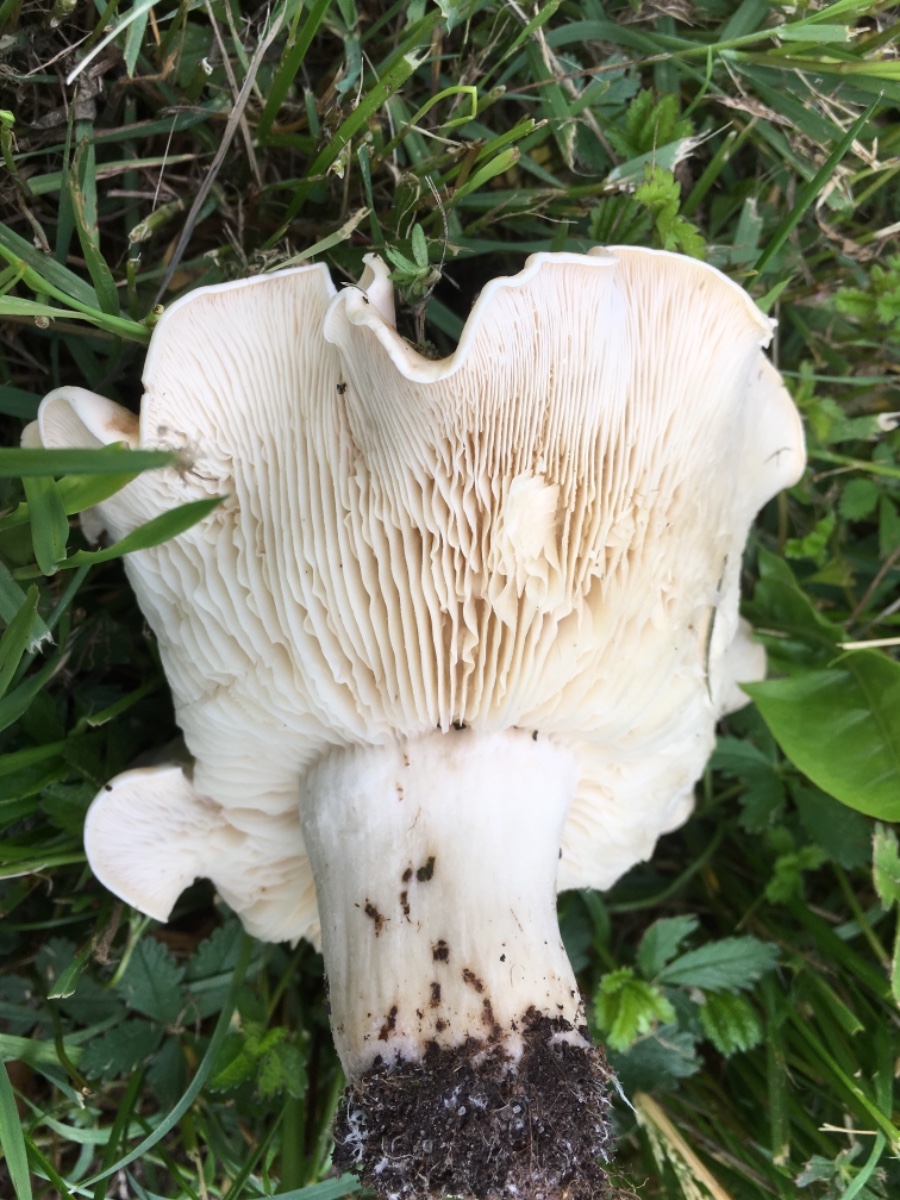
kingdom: Fungi
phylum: Basidiomycota
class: Agaricomycetes
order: Agaricales
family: Lyophyllaceae
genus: Calocybe
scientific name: Calocybe gambosa
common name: vårmusseron
